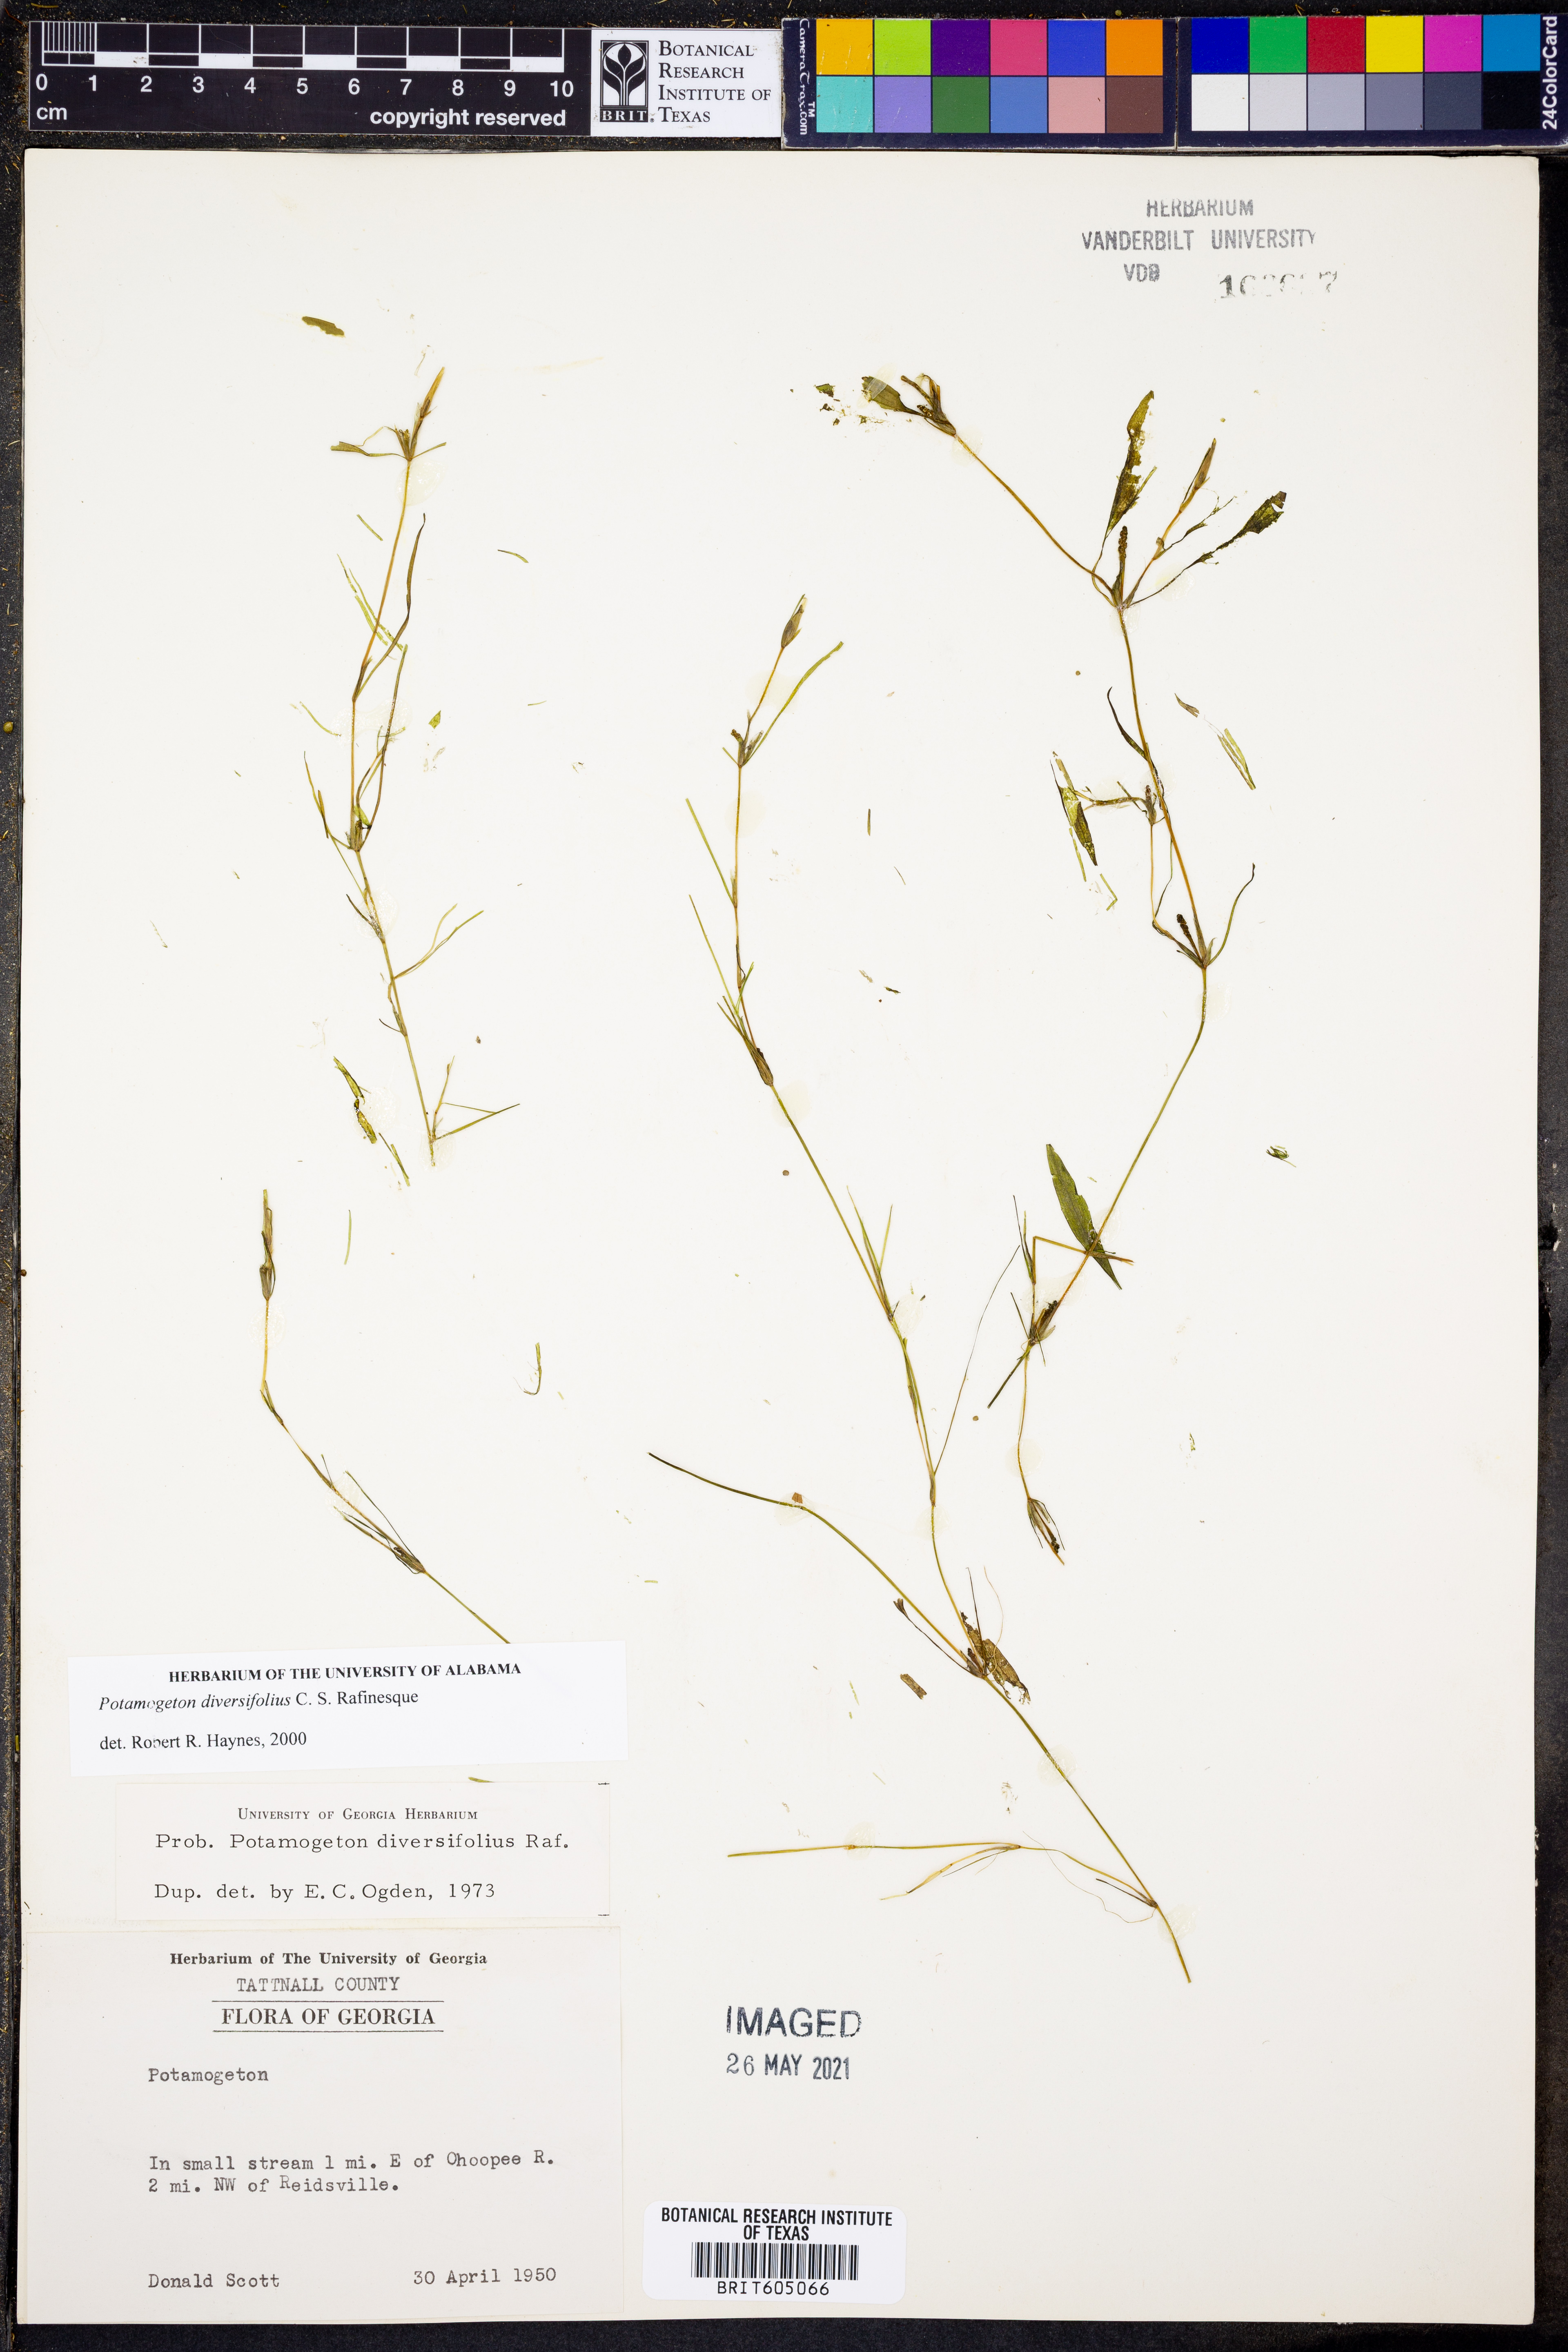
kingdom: Plantae
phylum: Tracheophyta
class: Liliopsida
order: Alismatales
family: Potamogetonaceae
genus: Potamogeton
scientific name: Potamogeton diversifolius
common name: Water-thread pondweed
